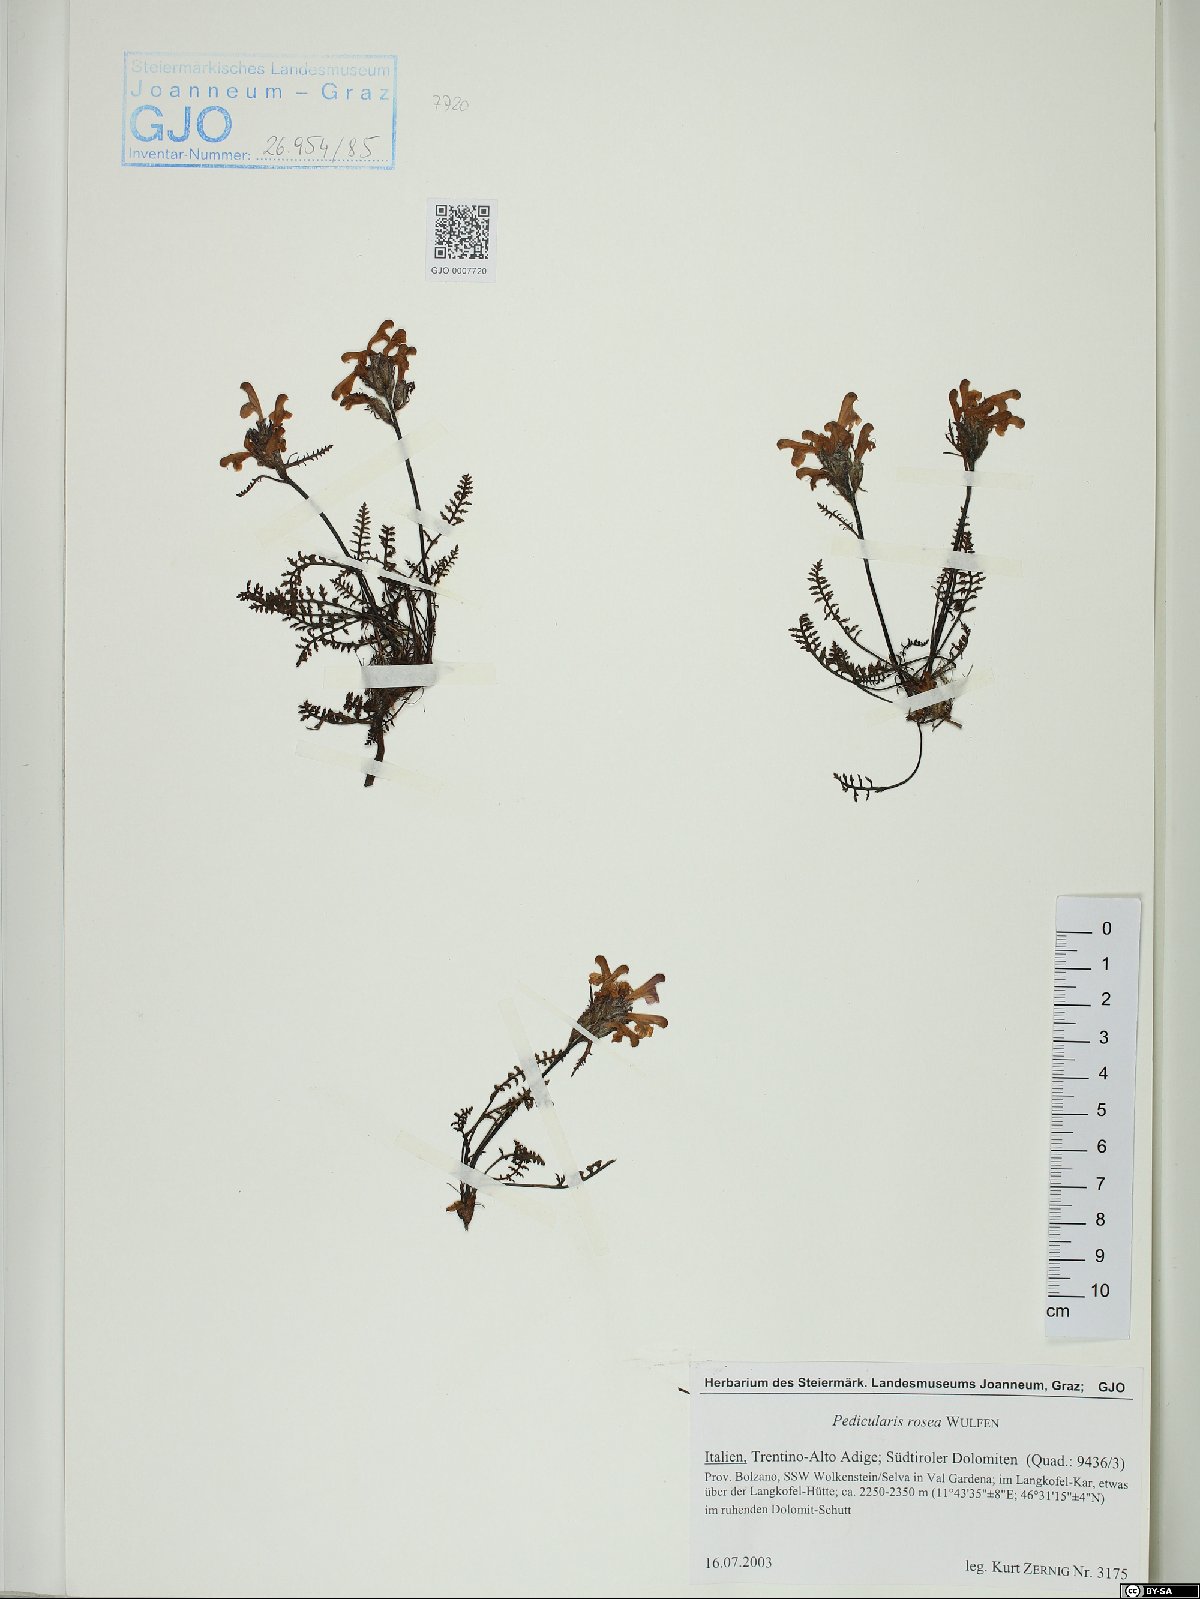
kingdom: Plantae
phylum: Tracheophyta
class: Magnoliopsida
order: Lamiales
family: Orobanchaceae
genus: Pedicularis
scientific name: Pedicularis rosea
